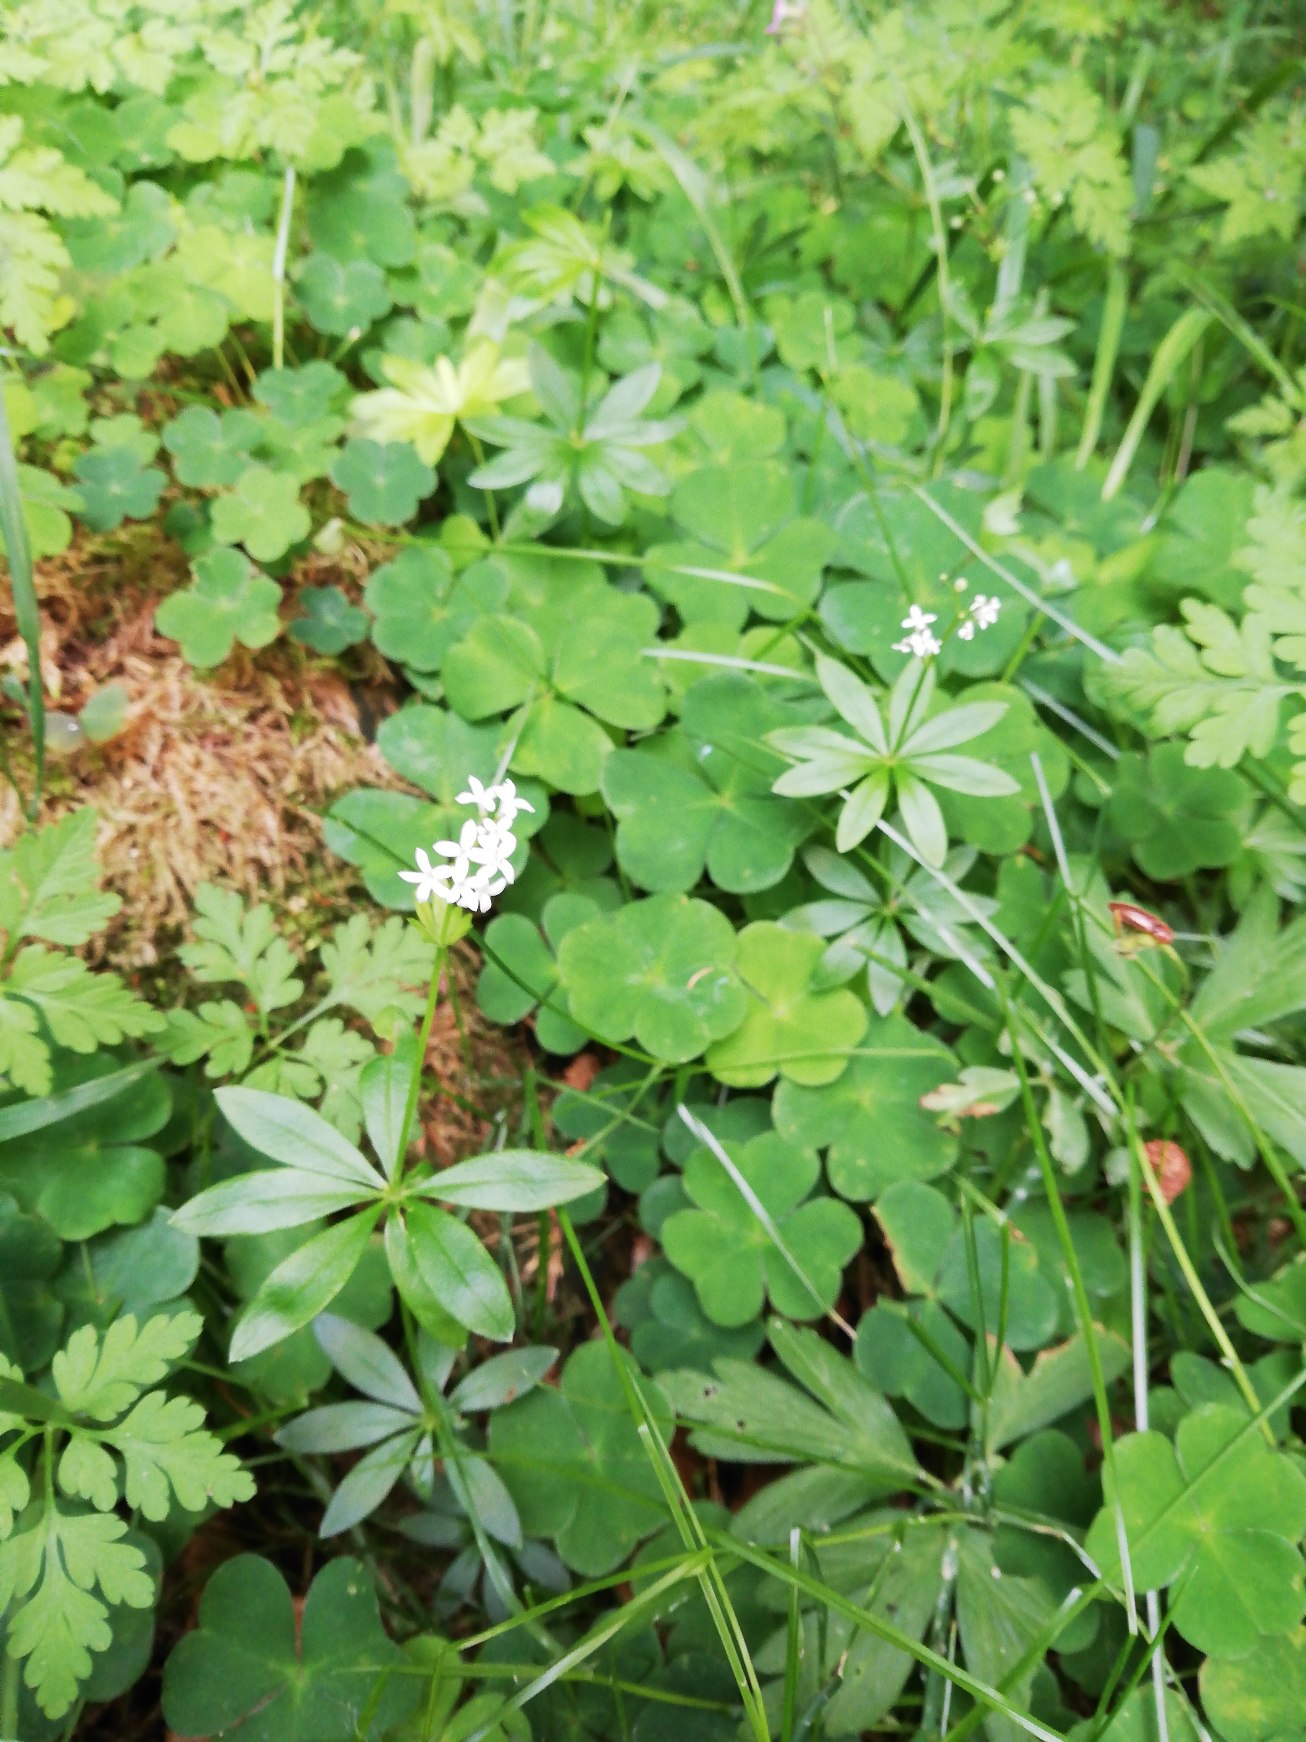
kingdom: Plantae
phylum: Tracheophyta
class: Magnoliopsida
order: Gentianales
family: Rubiaceae
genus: Galium
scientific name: Galium odoratum
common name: Skovmærke
